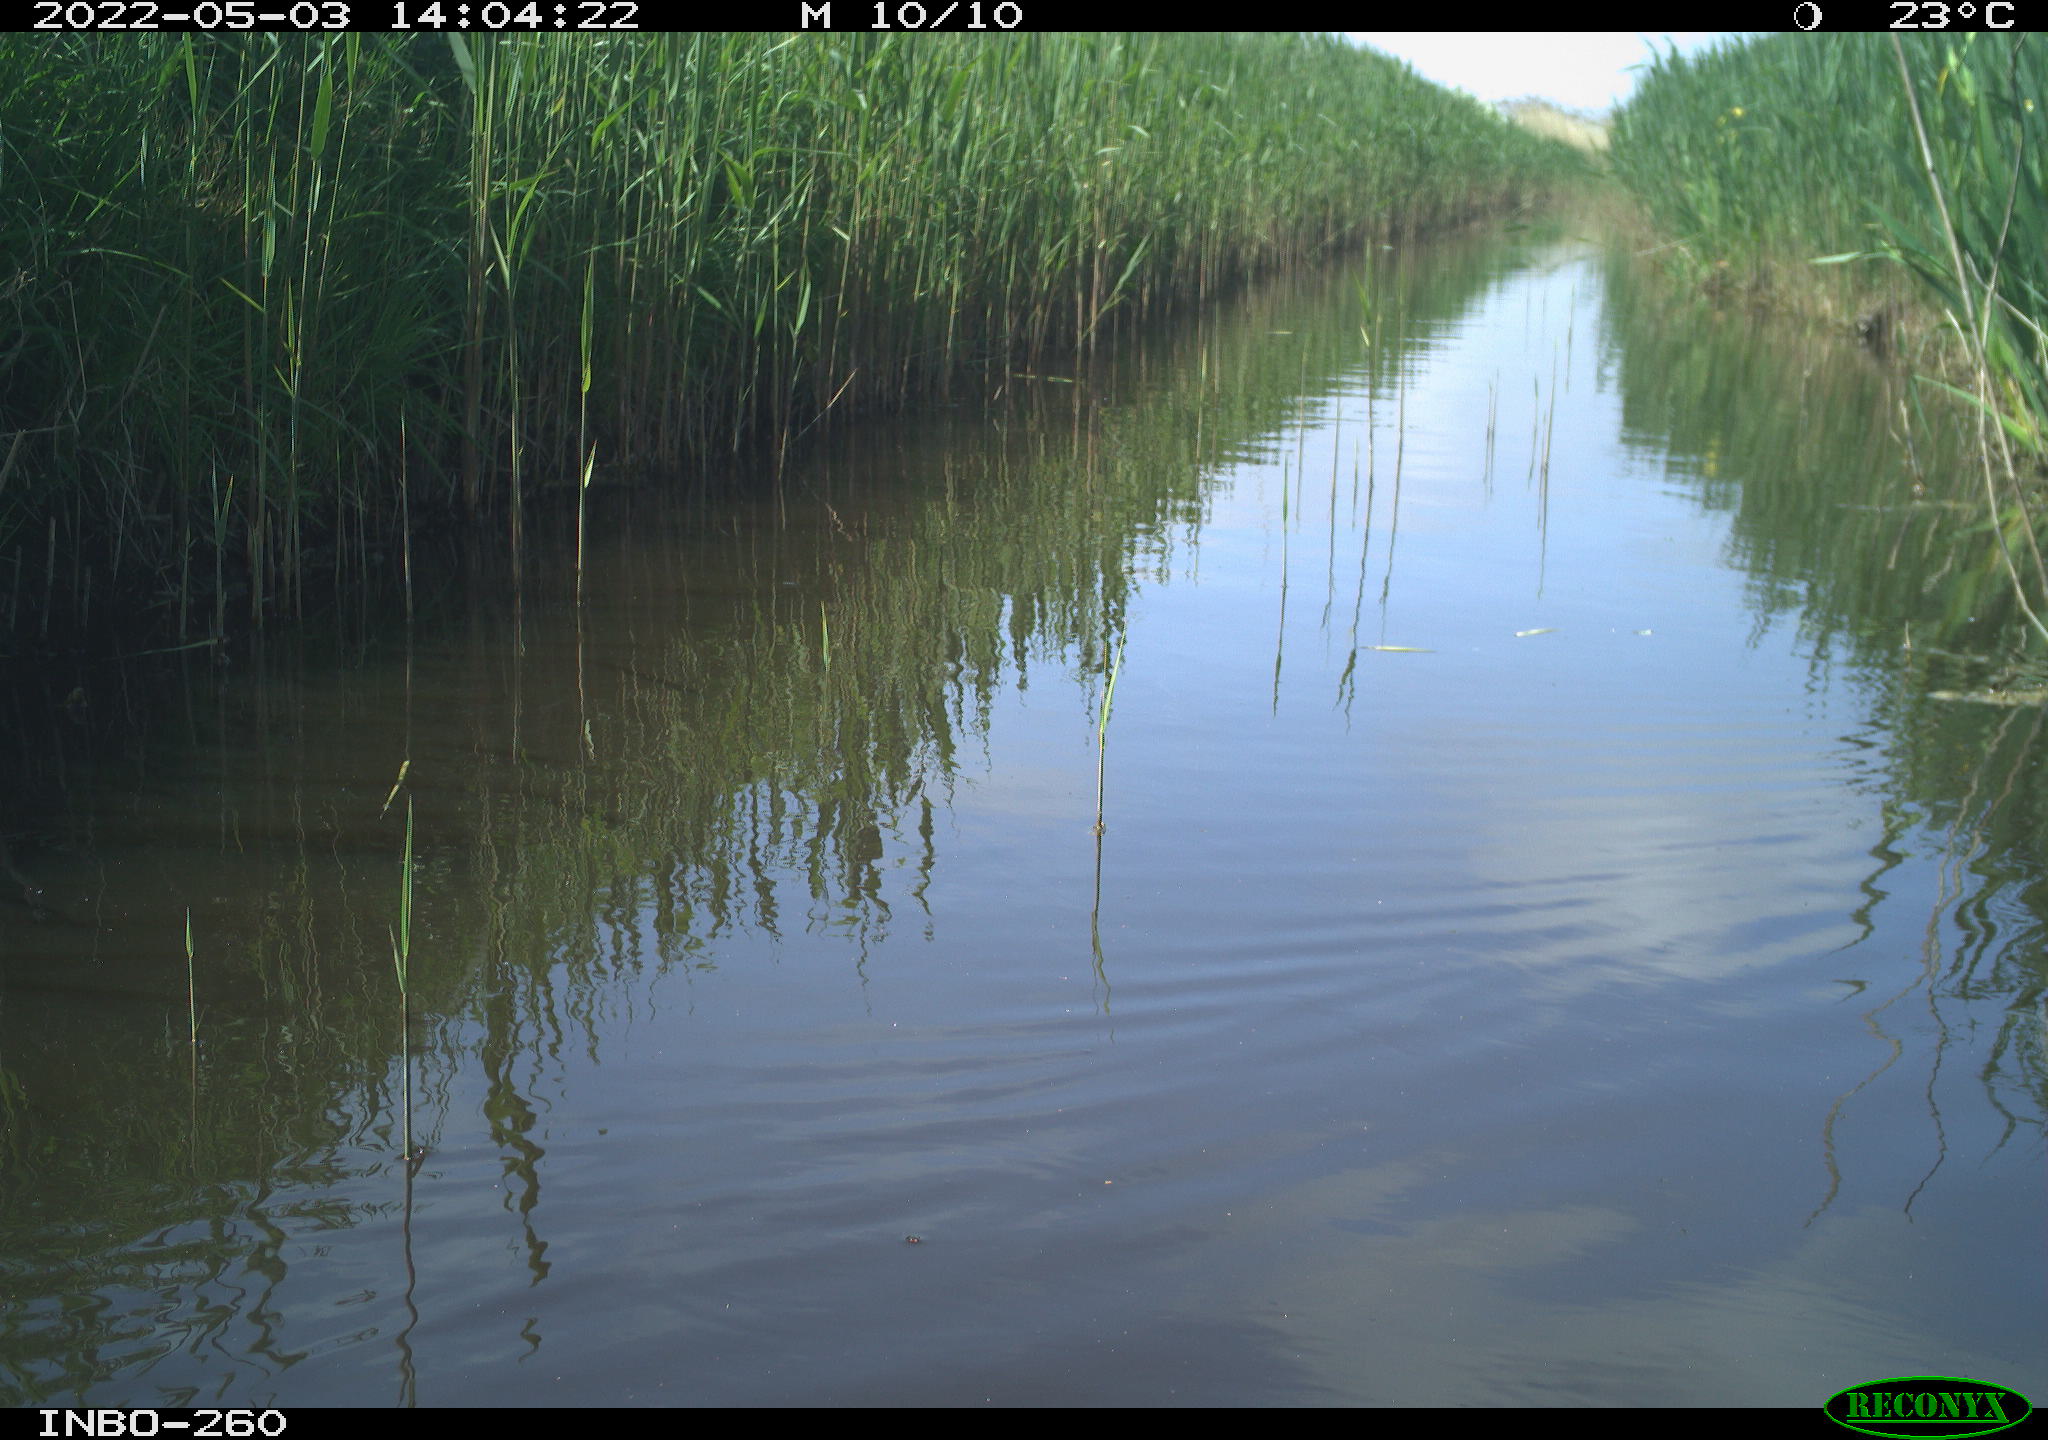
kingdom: Animalia
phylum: Chordata
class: Aves
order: Gruiformes
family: Rallidae
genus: Fulica
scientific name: Fulica atra
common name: Eurasian coot
